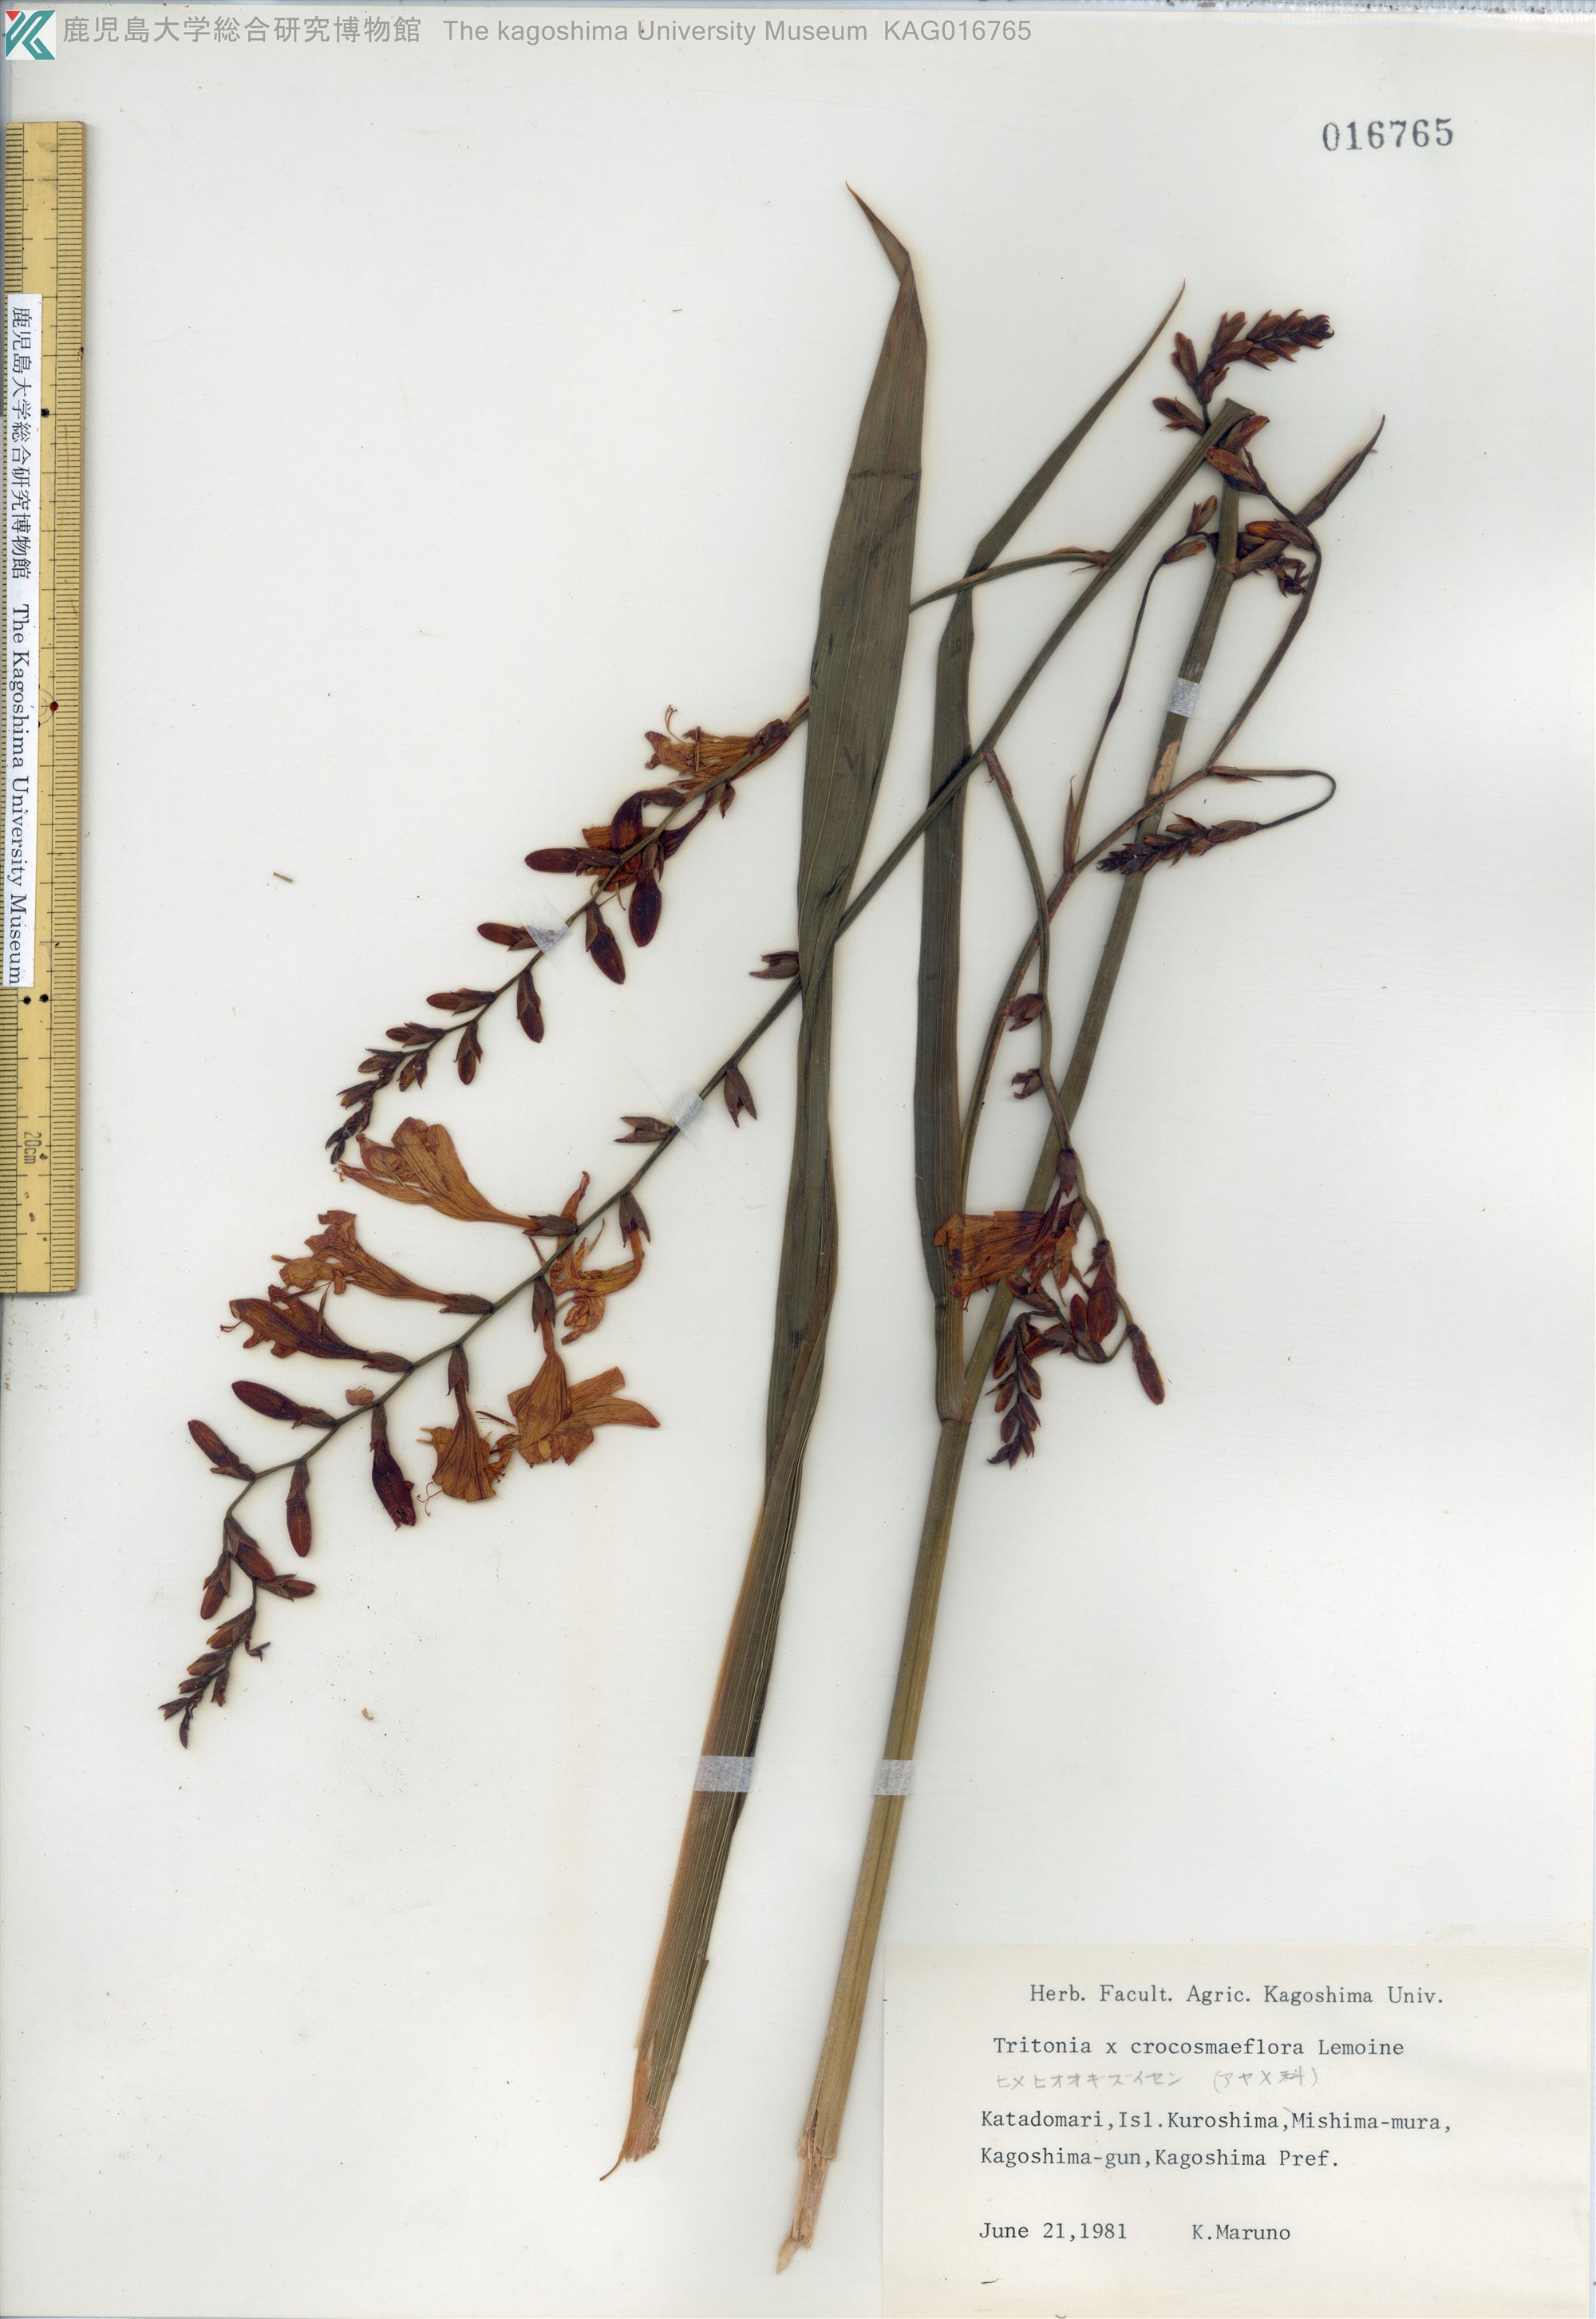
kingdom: Plantae
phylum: Tracheophyta
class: Liliopsida
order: Asparagales
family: Iridaceae
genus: Crocosmia
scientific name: Crocosmia crocosmiiflora
